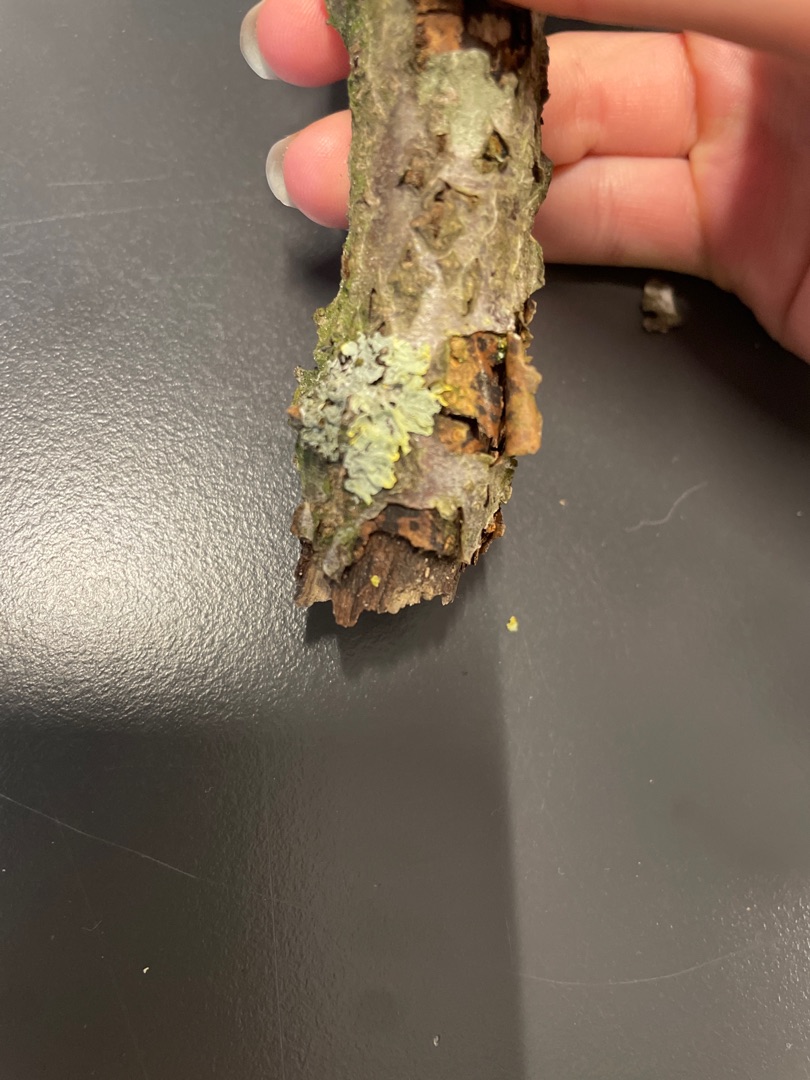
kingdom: Fungi
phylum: Ascomycota
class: Lecanoromycetes
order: Teloschistales
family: Teloschistaceae
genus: Xanthoria
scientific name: Xanthoria parietina
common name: Almindelig væggelav
